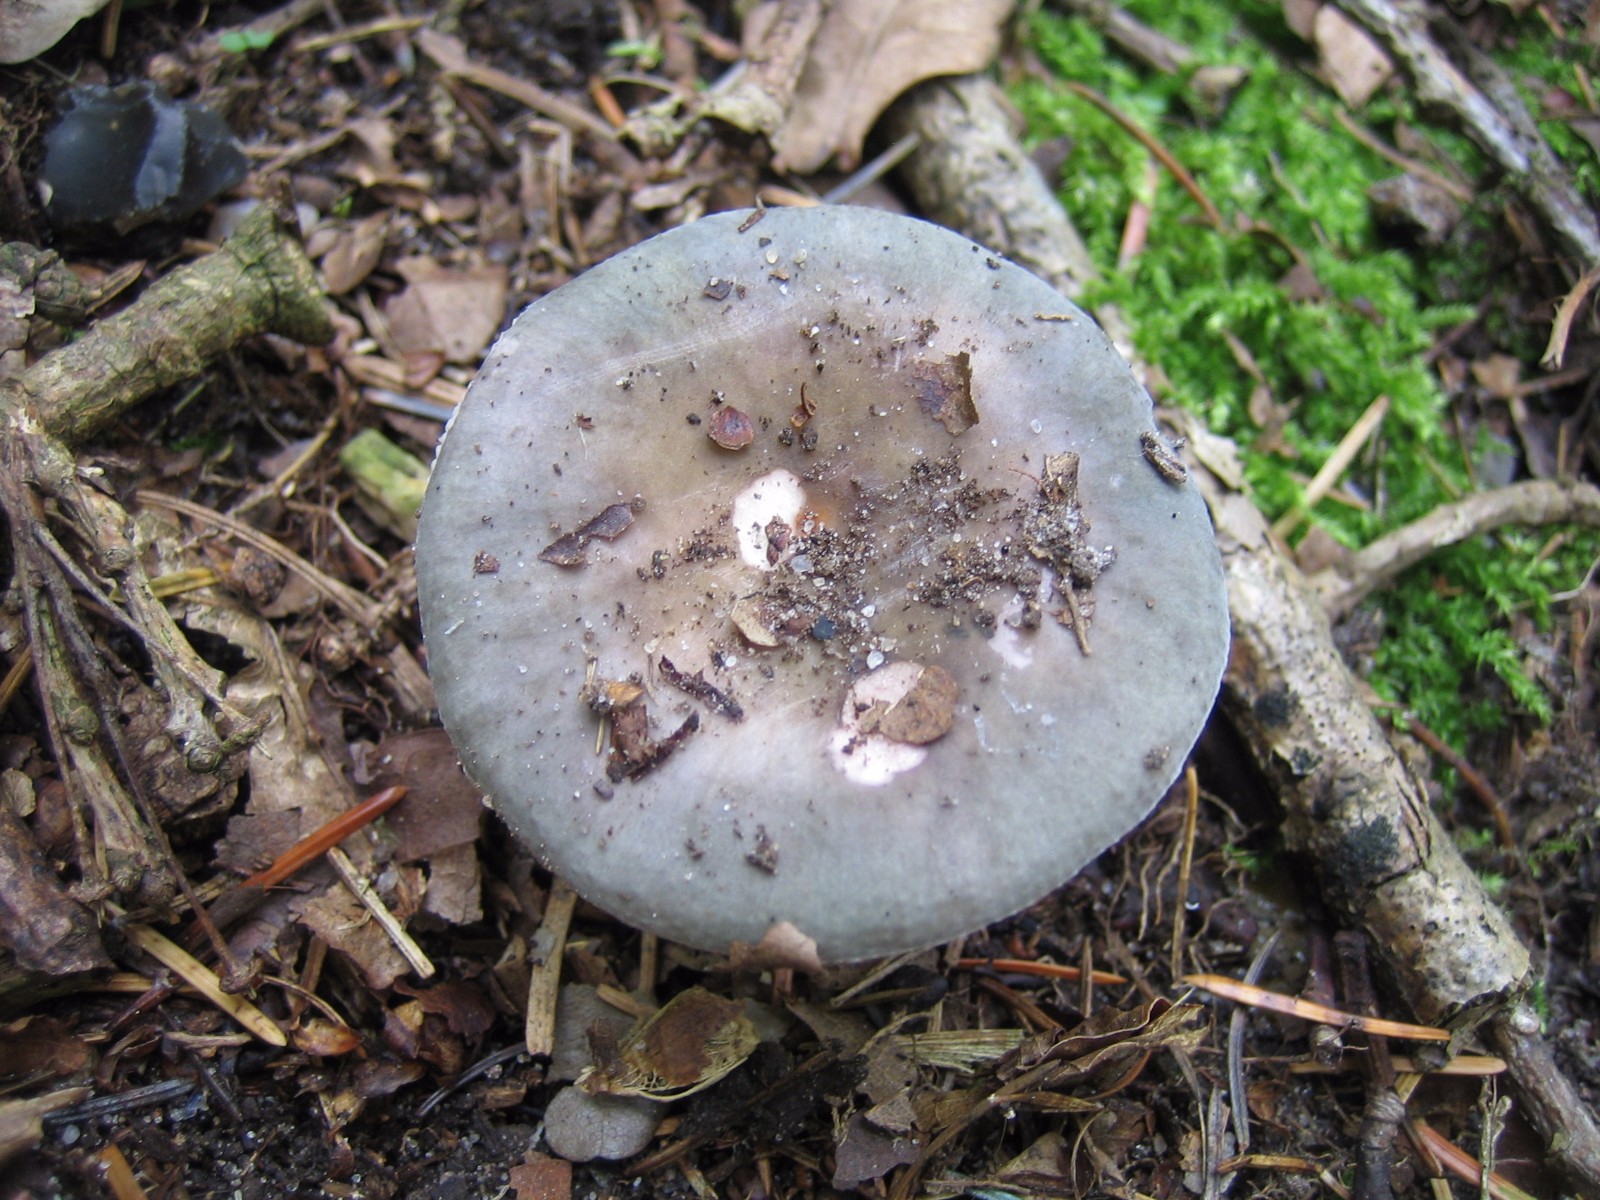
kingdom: Fungi
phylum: Basidiomycota
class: Agaricomycetes
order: Russulales
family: Russulaceae
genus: Russula
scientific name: Russula
